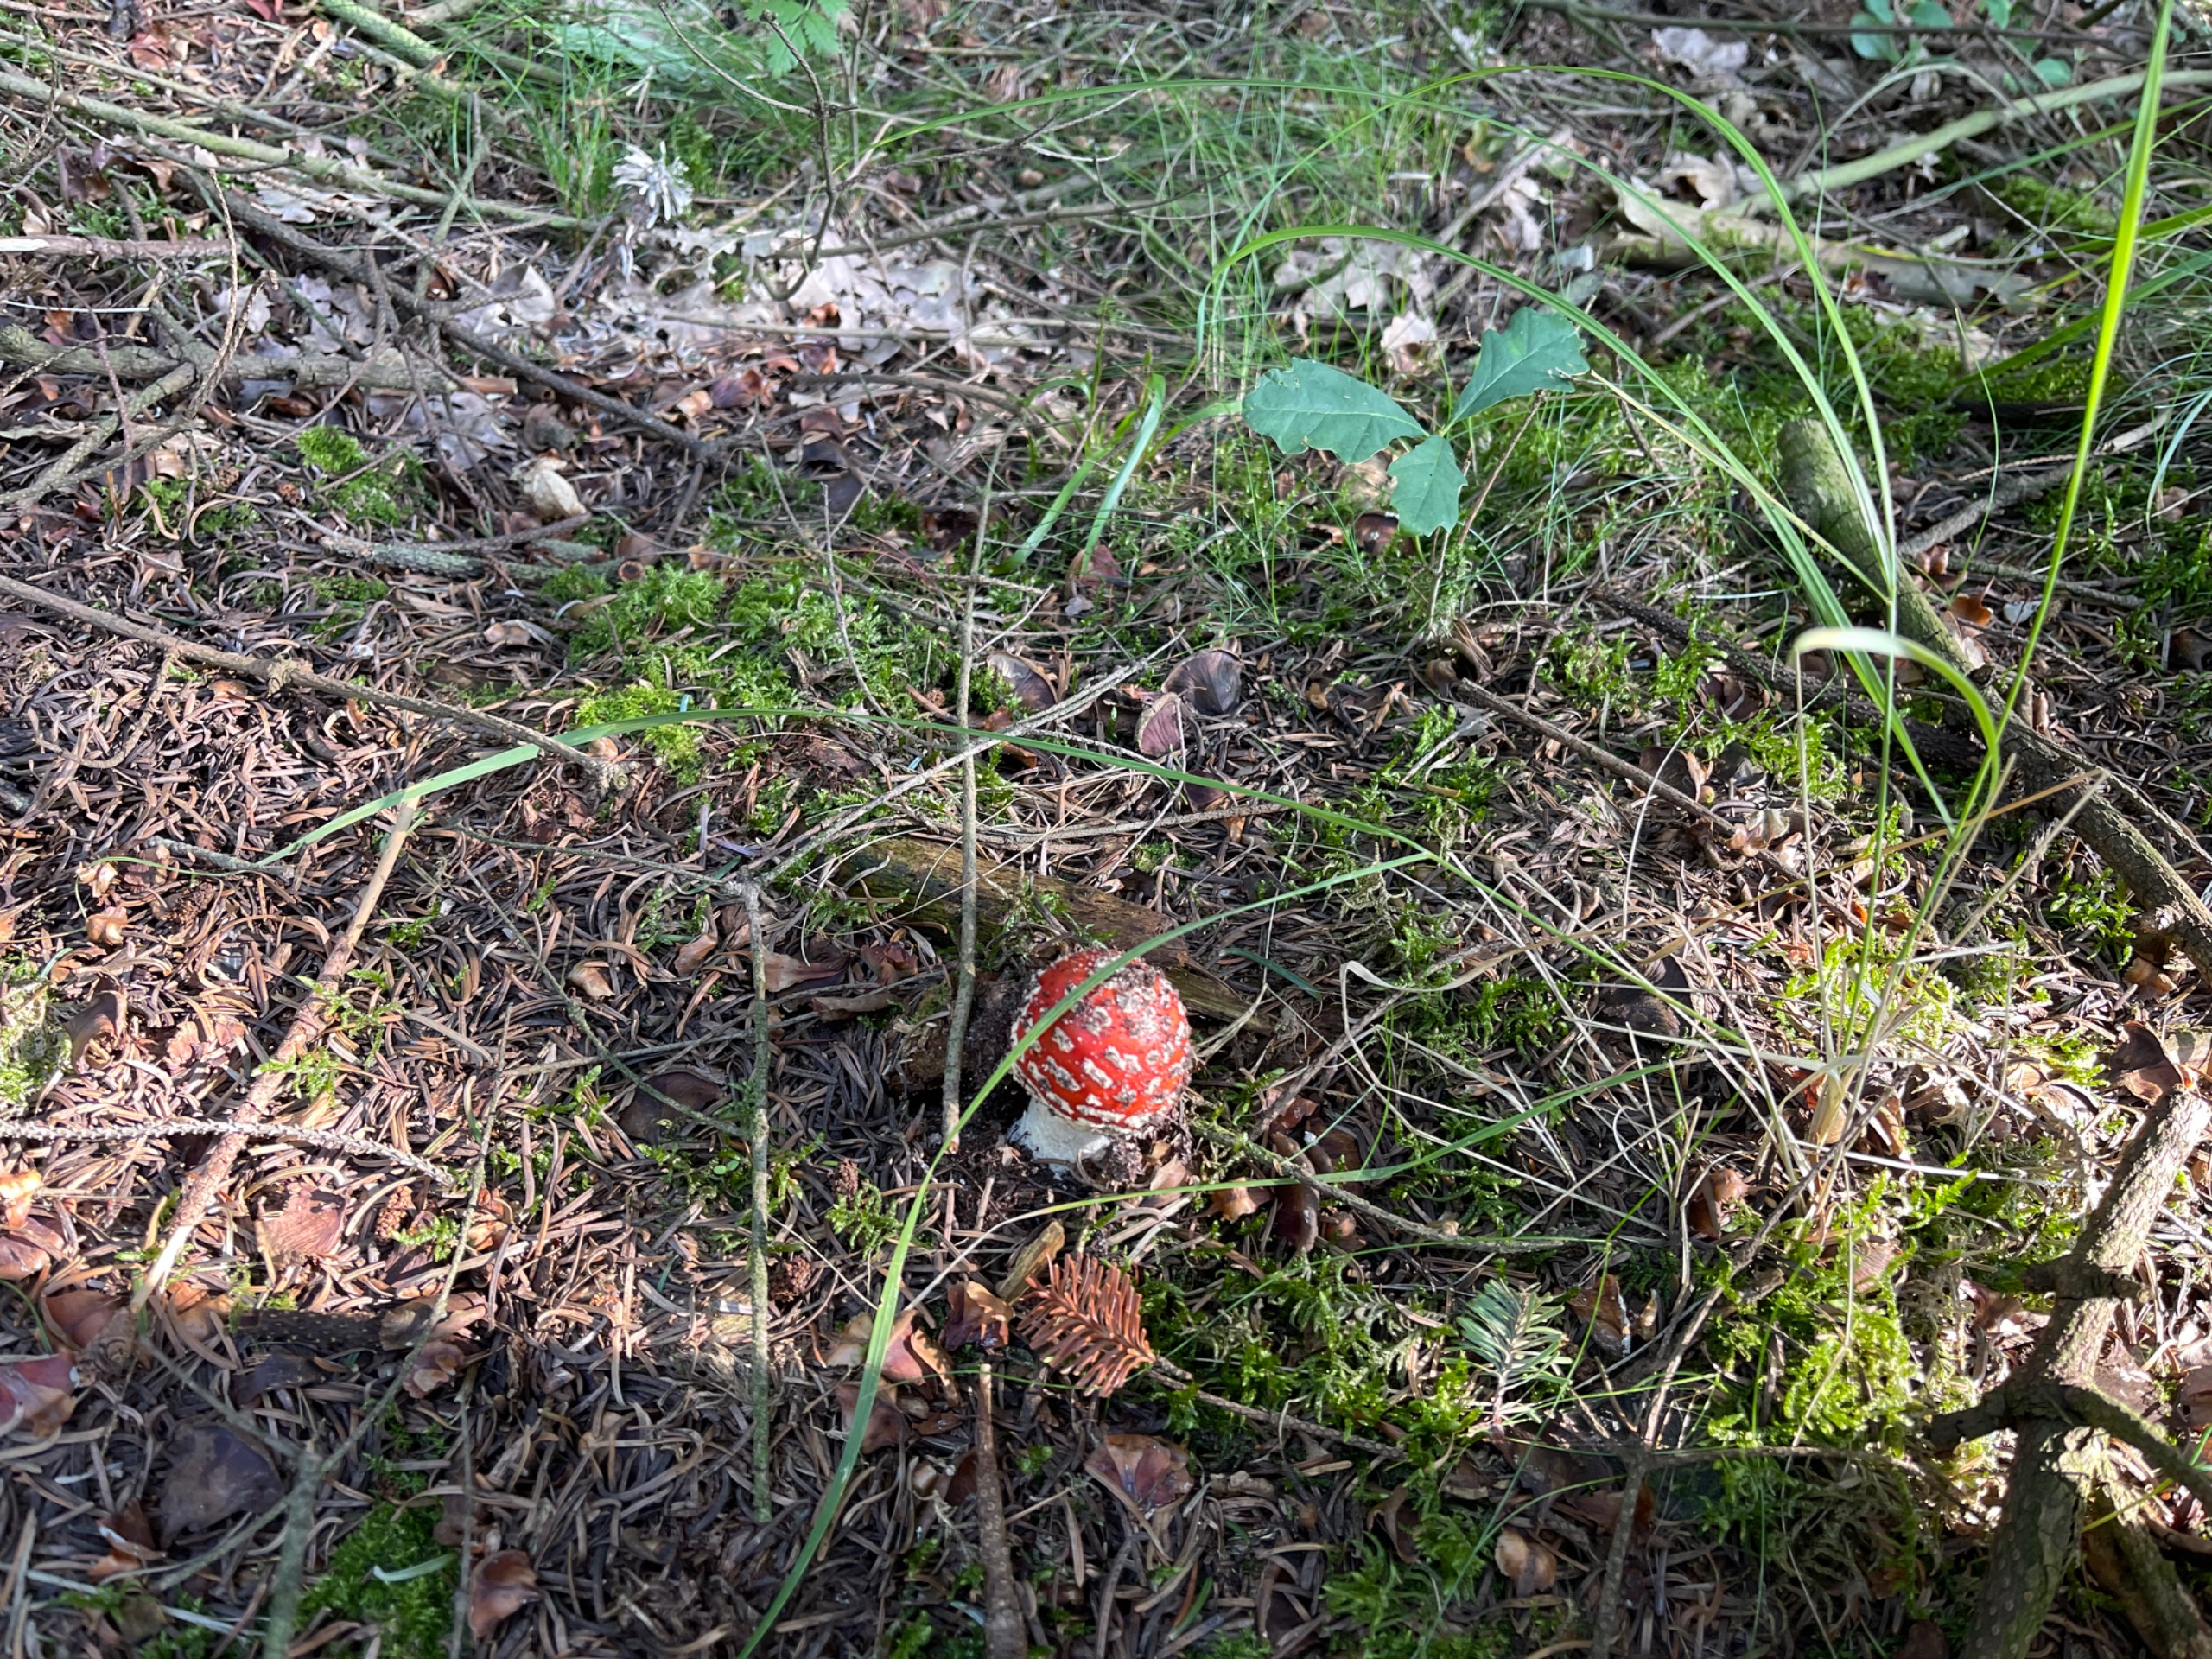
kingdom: Fungi
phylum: Basidiomycota
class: Agaricomycetes
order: Agaricales
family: Amanitaceae
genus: Amanita
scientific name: Amanita muscaria
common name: Rød fluesvamp
